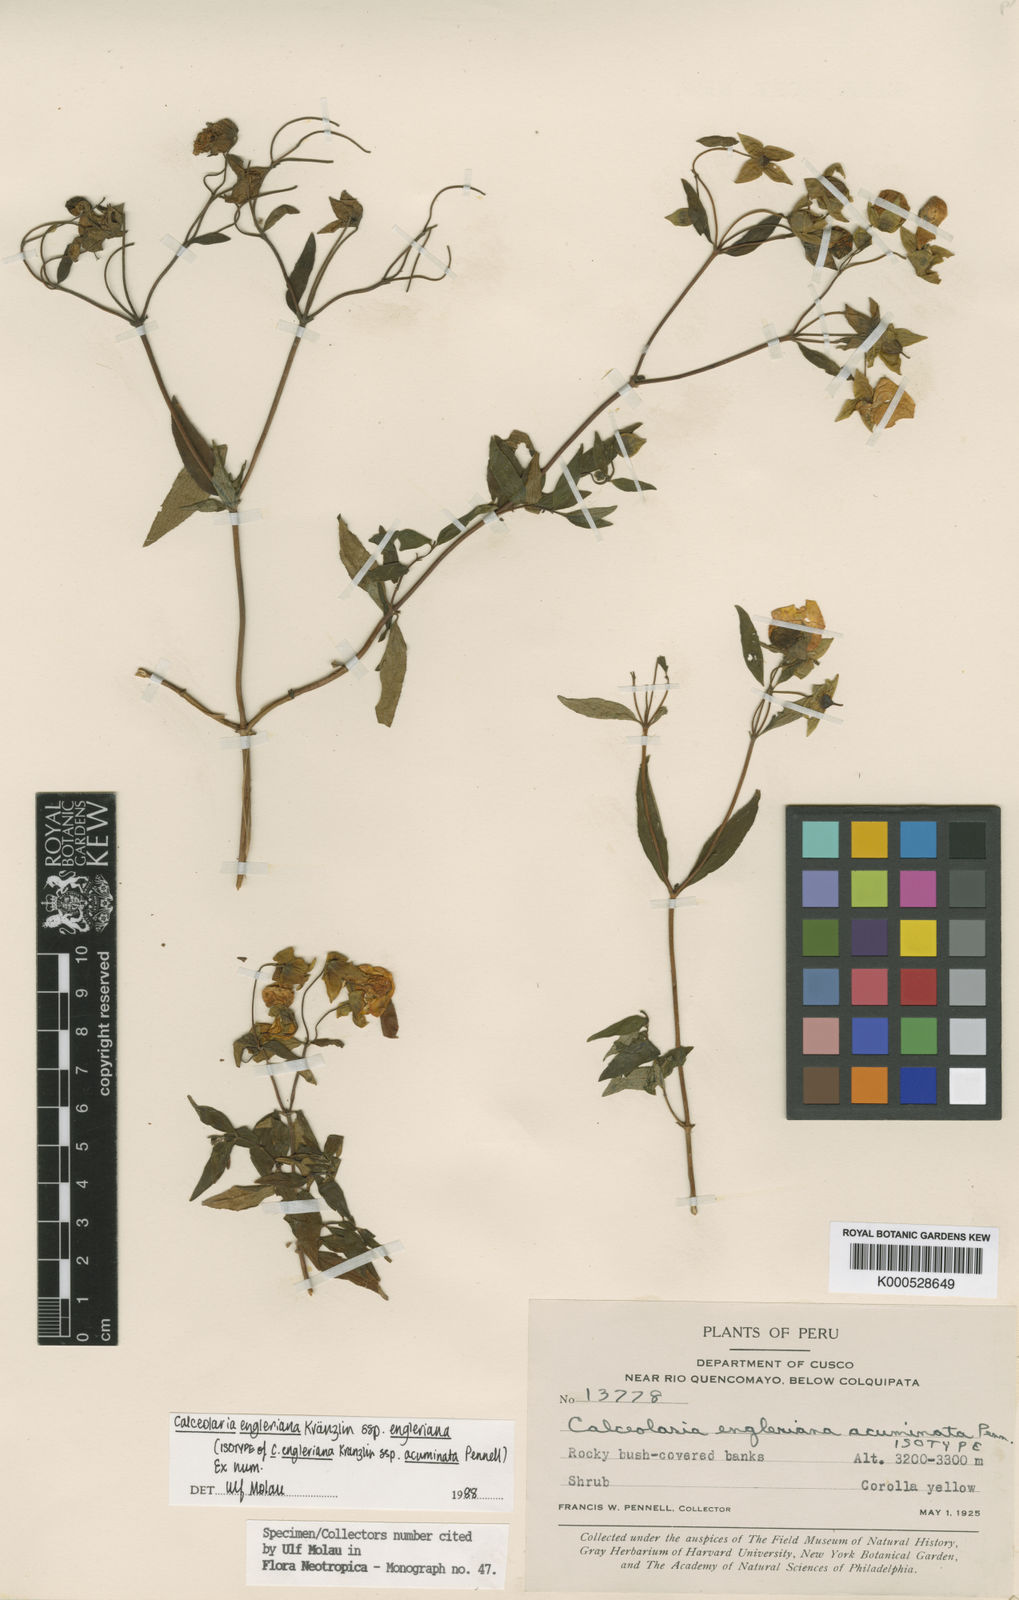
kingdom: Plantae
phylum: Tracheophyta
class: Magnoliopsida
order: Lamiales
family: Calceolariaceae
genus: Calceolaria
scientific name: Calceolaria engleriana
